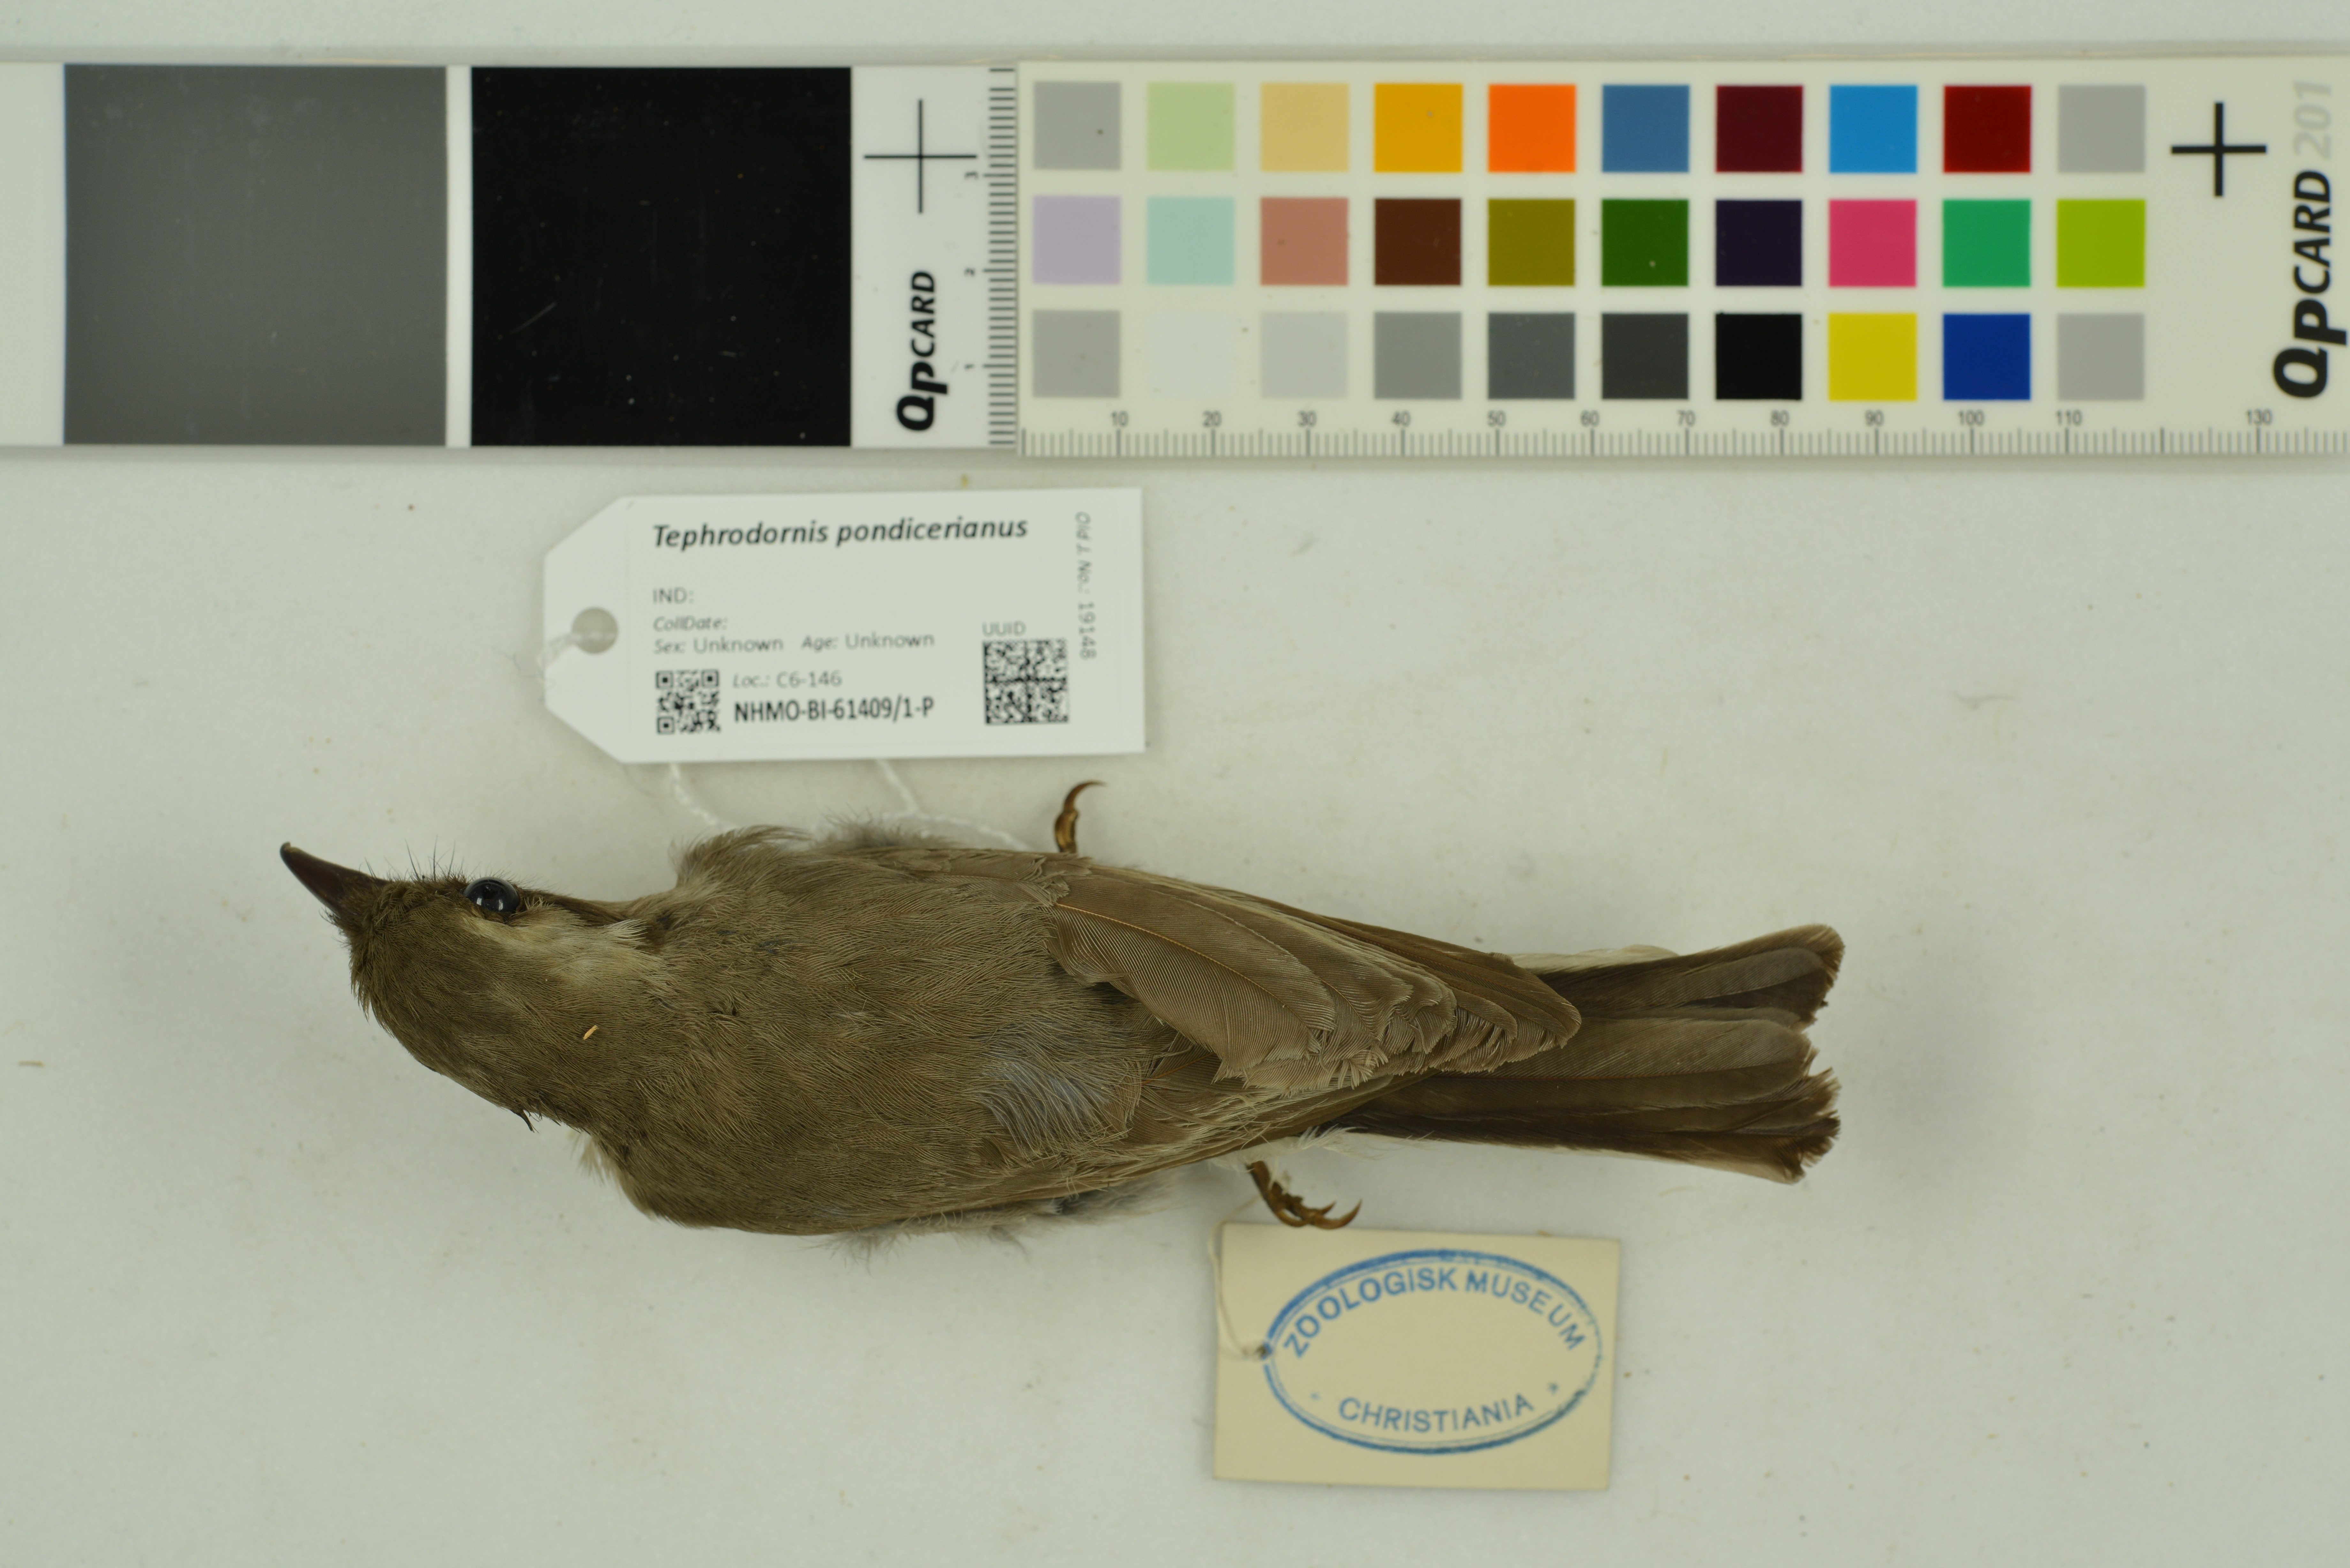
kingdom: Animalia
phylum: Chordata
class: Aves
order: Passeriformes
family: Tephrodornithidae
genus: Tephrodornis
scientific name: Tephrodornis pondicerianus
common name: Common woodshrike
